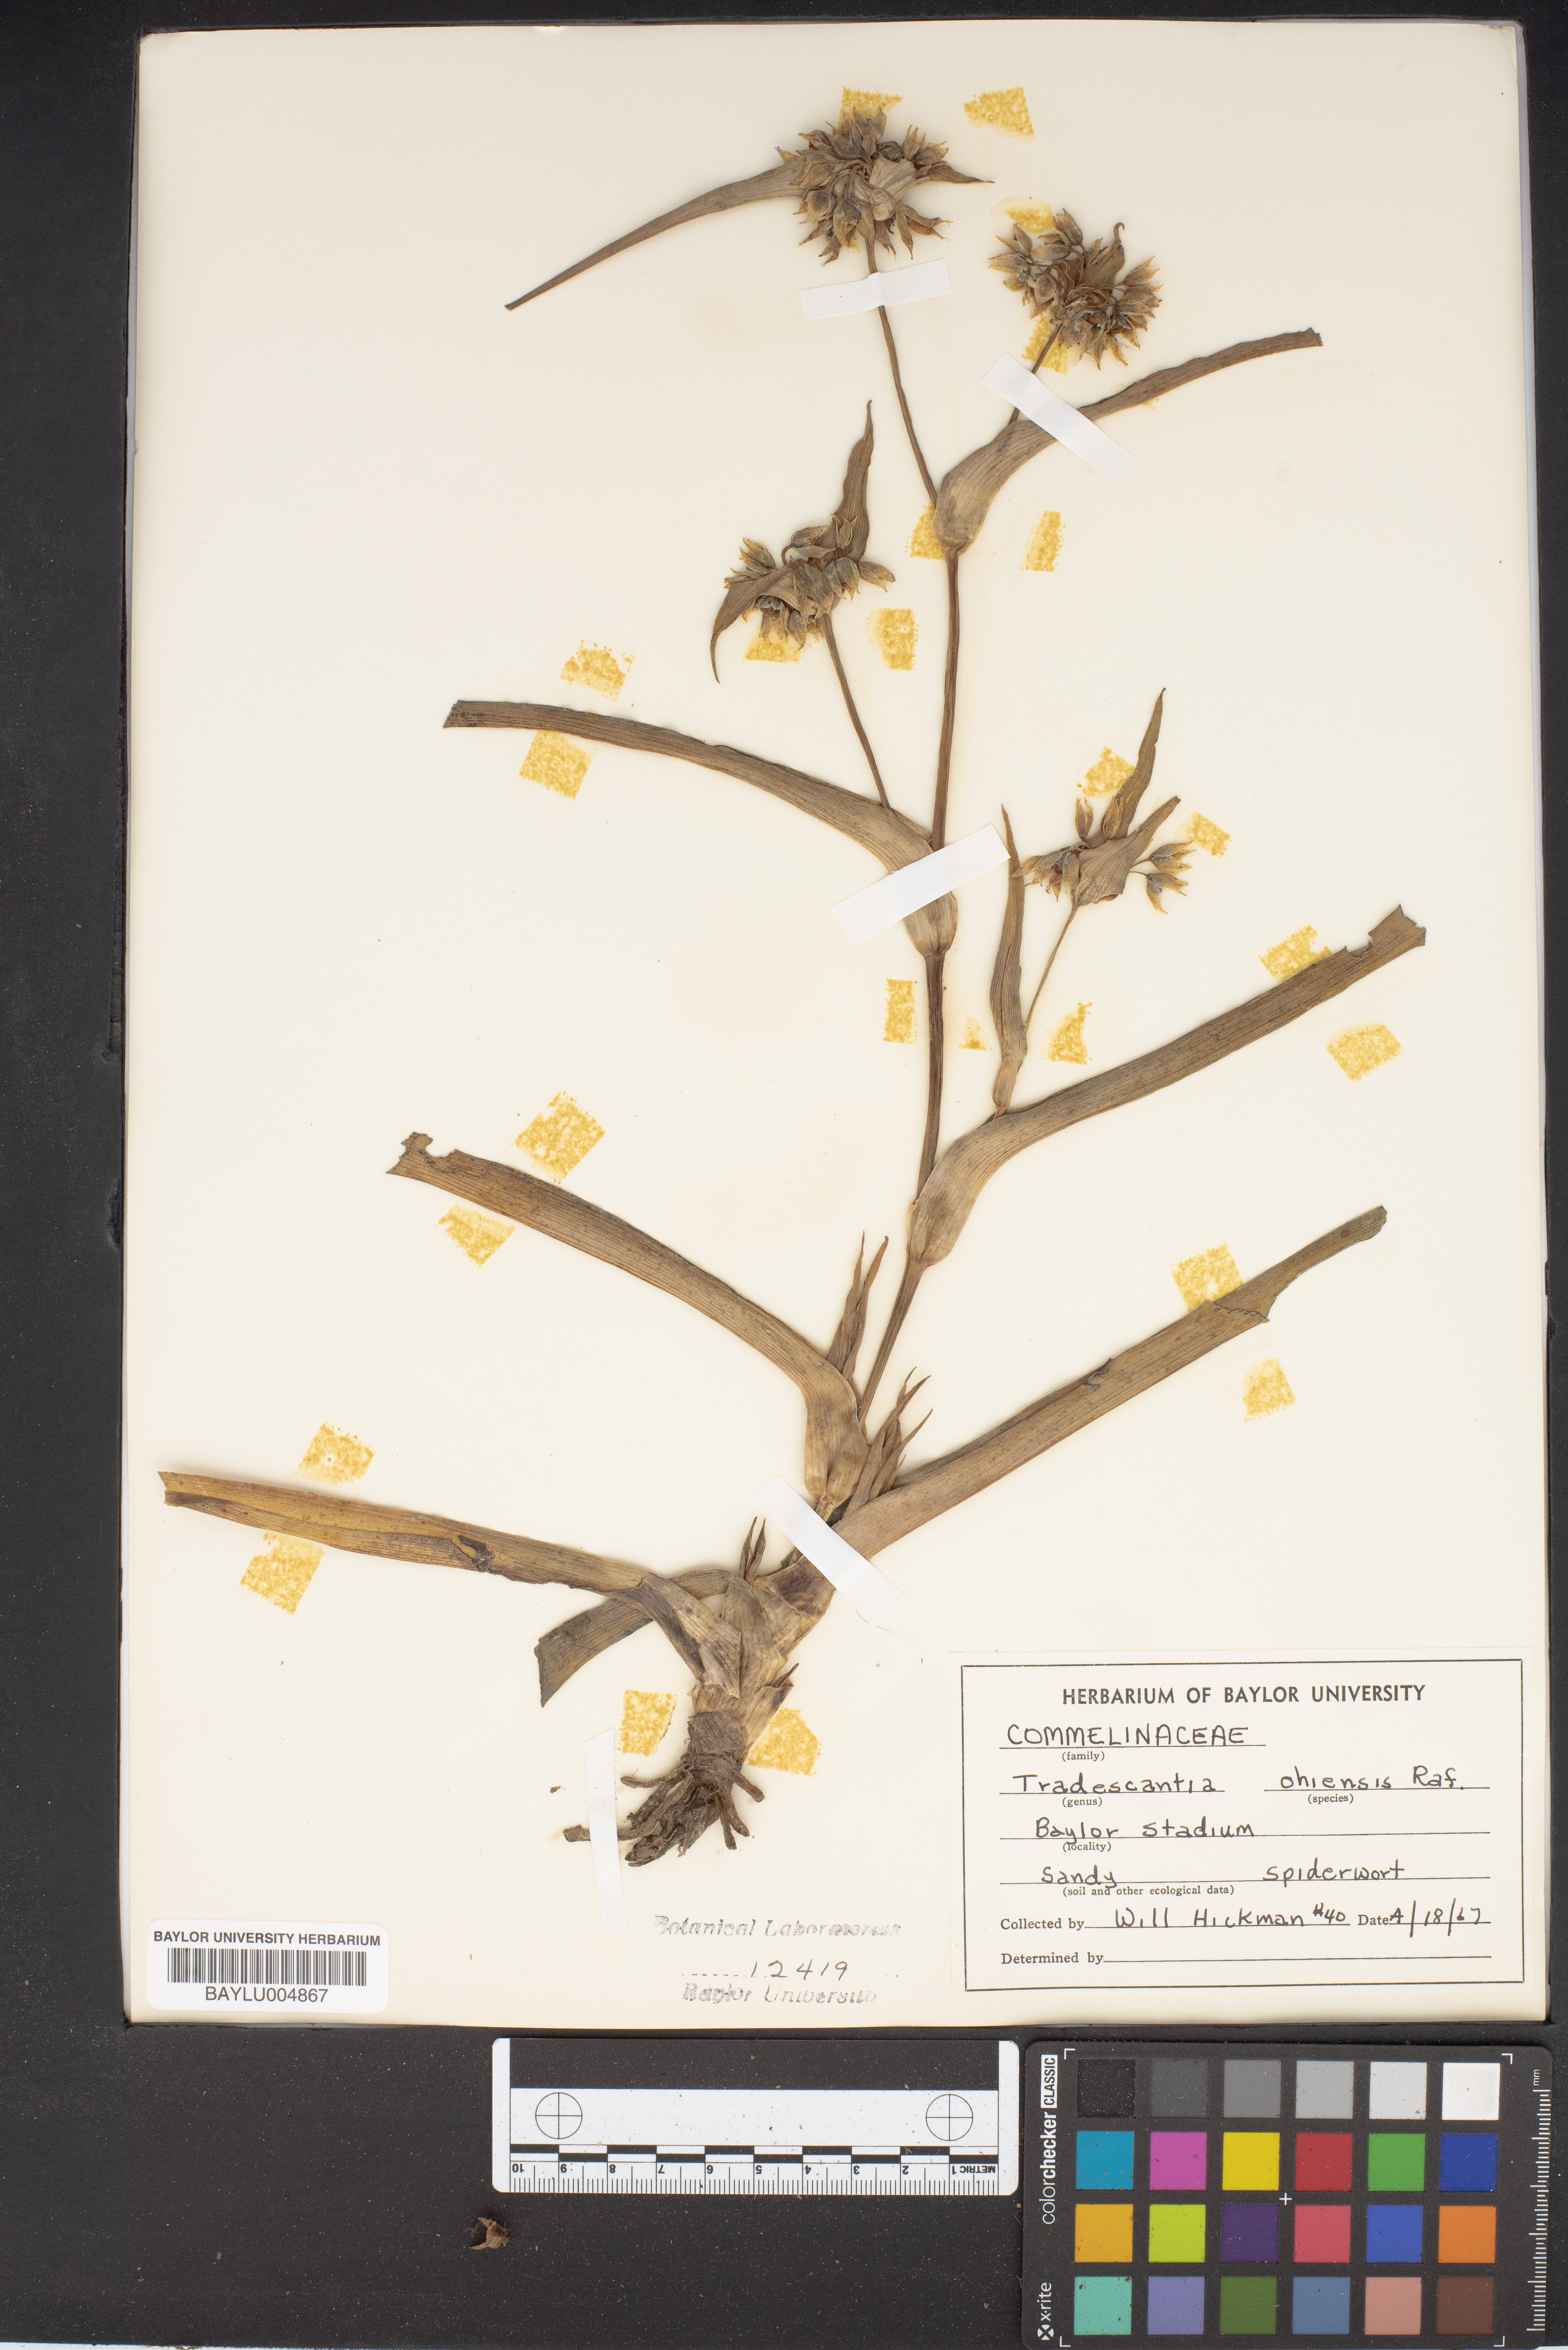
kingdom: Plantae
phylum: Tracheophyta
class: Liliopsida
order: Commelinales
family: Commelinaceae
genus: Tradescantia
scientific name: Tradescantia ohiensis
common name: Ohio spiderwort
